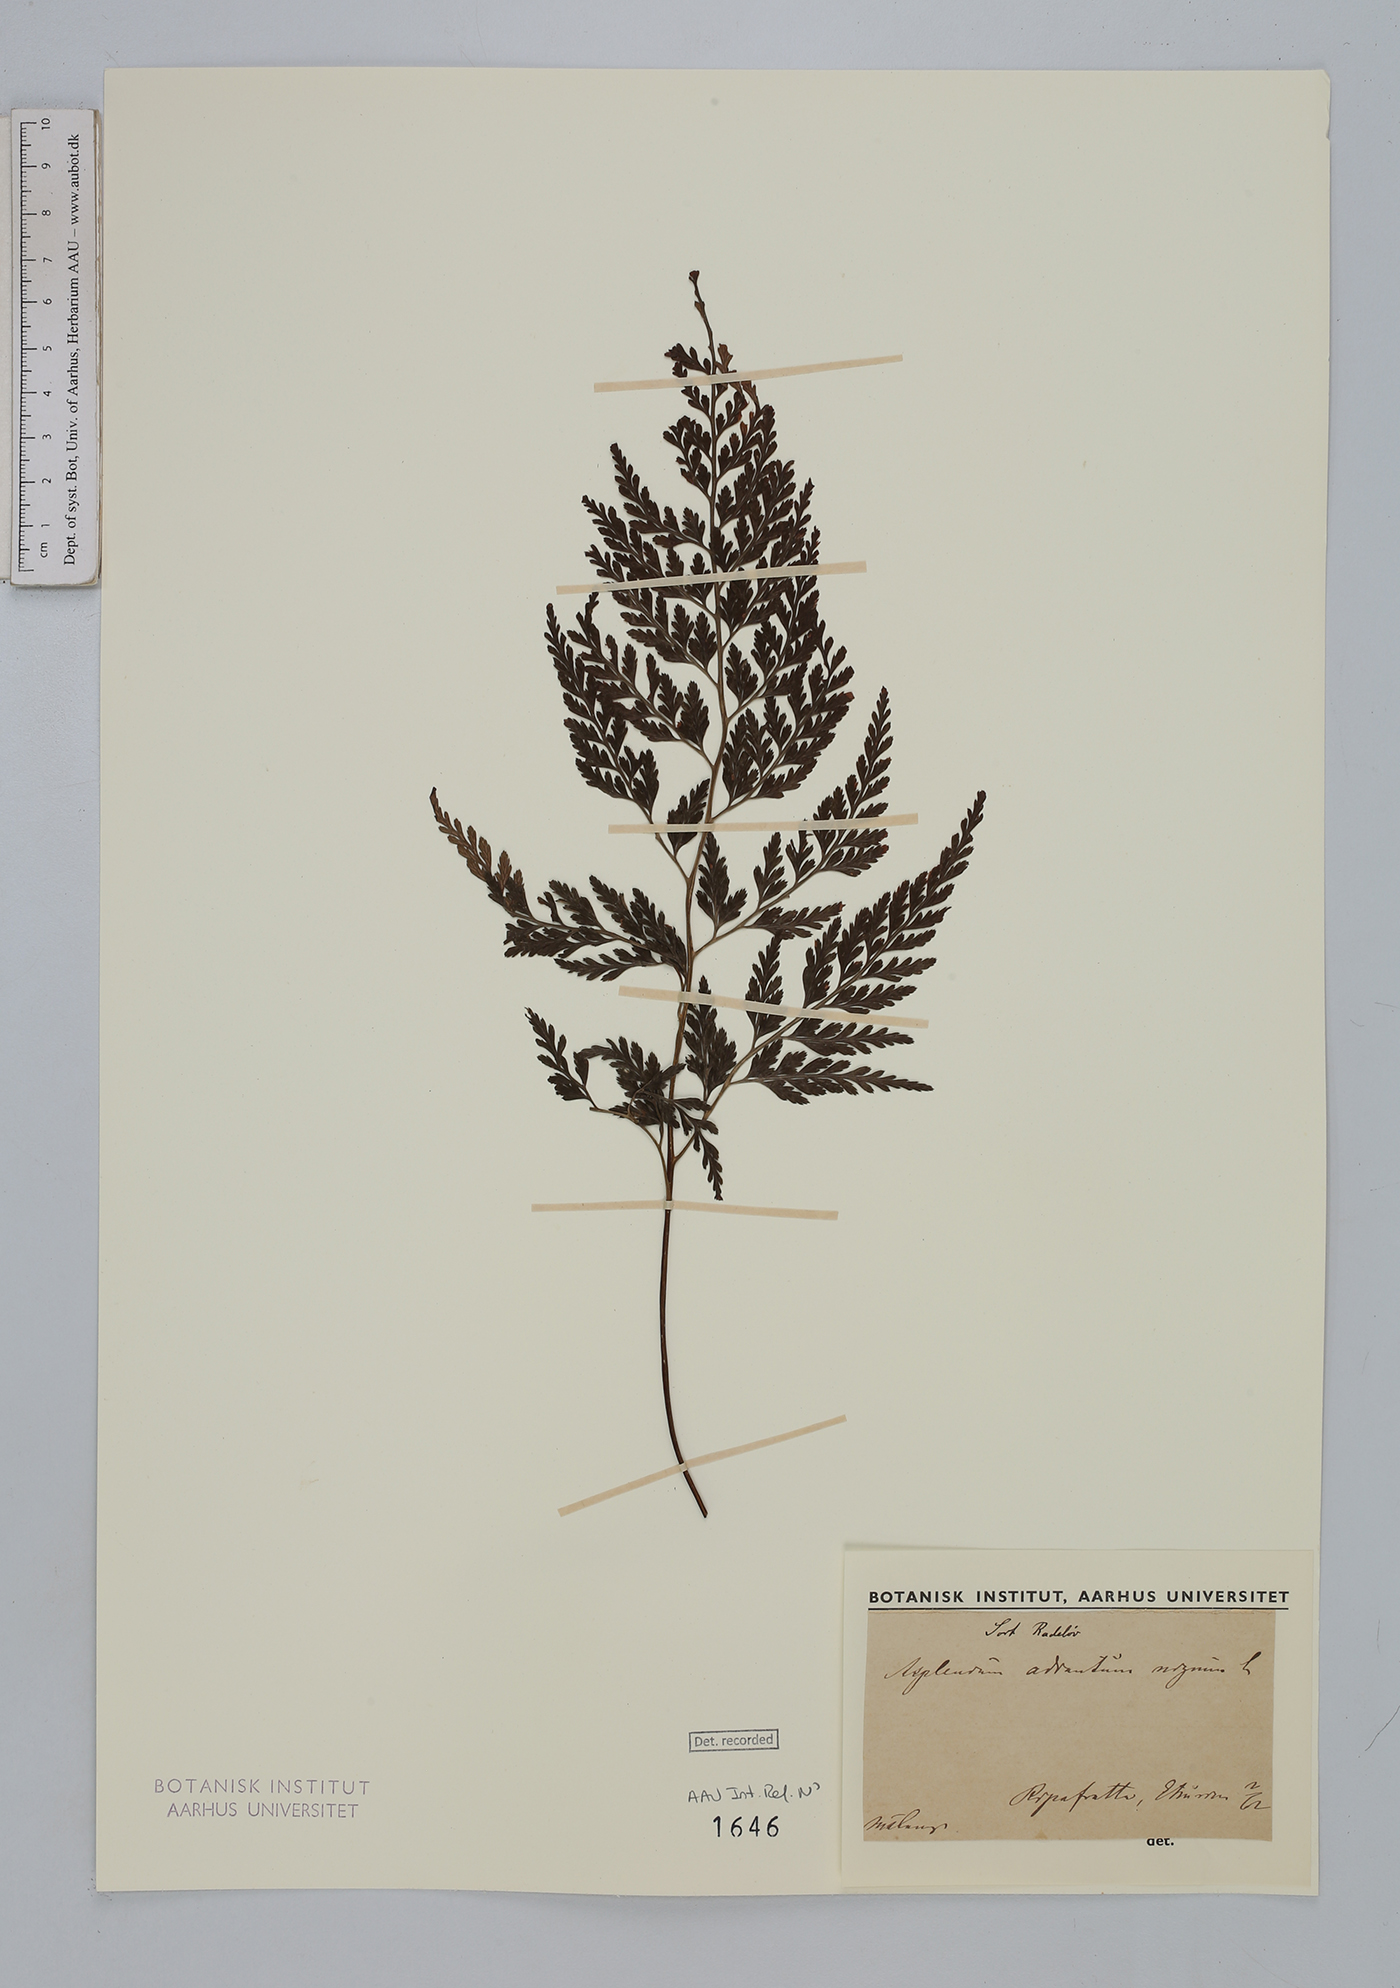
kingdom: Plantae
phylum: Tracheophyta
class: Polypodiopsida
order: Polypodiales
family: Aspleniaceae
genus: Asplenium
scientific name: Asplenium adiantum-nigrum
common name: Black spleenwort
